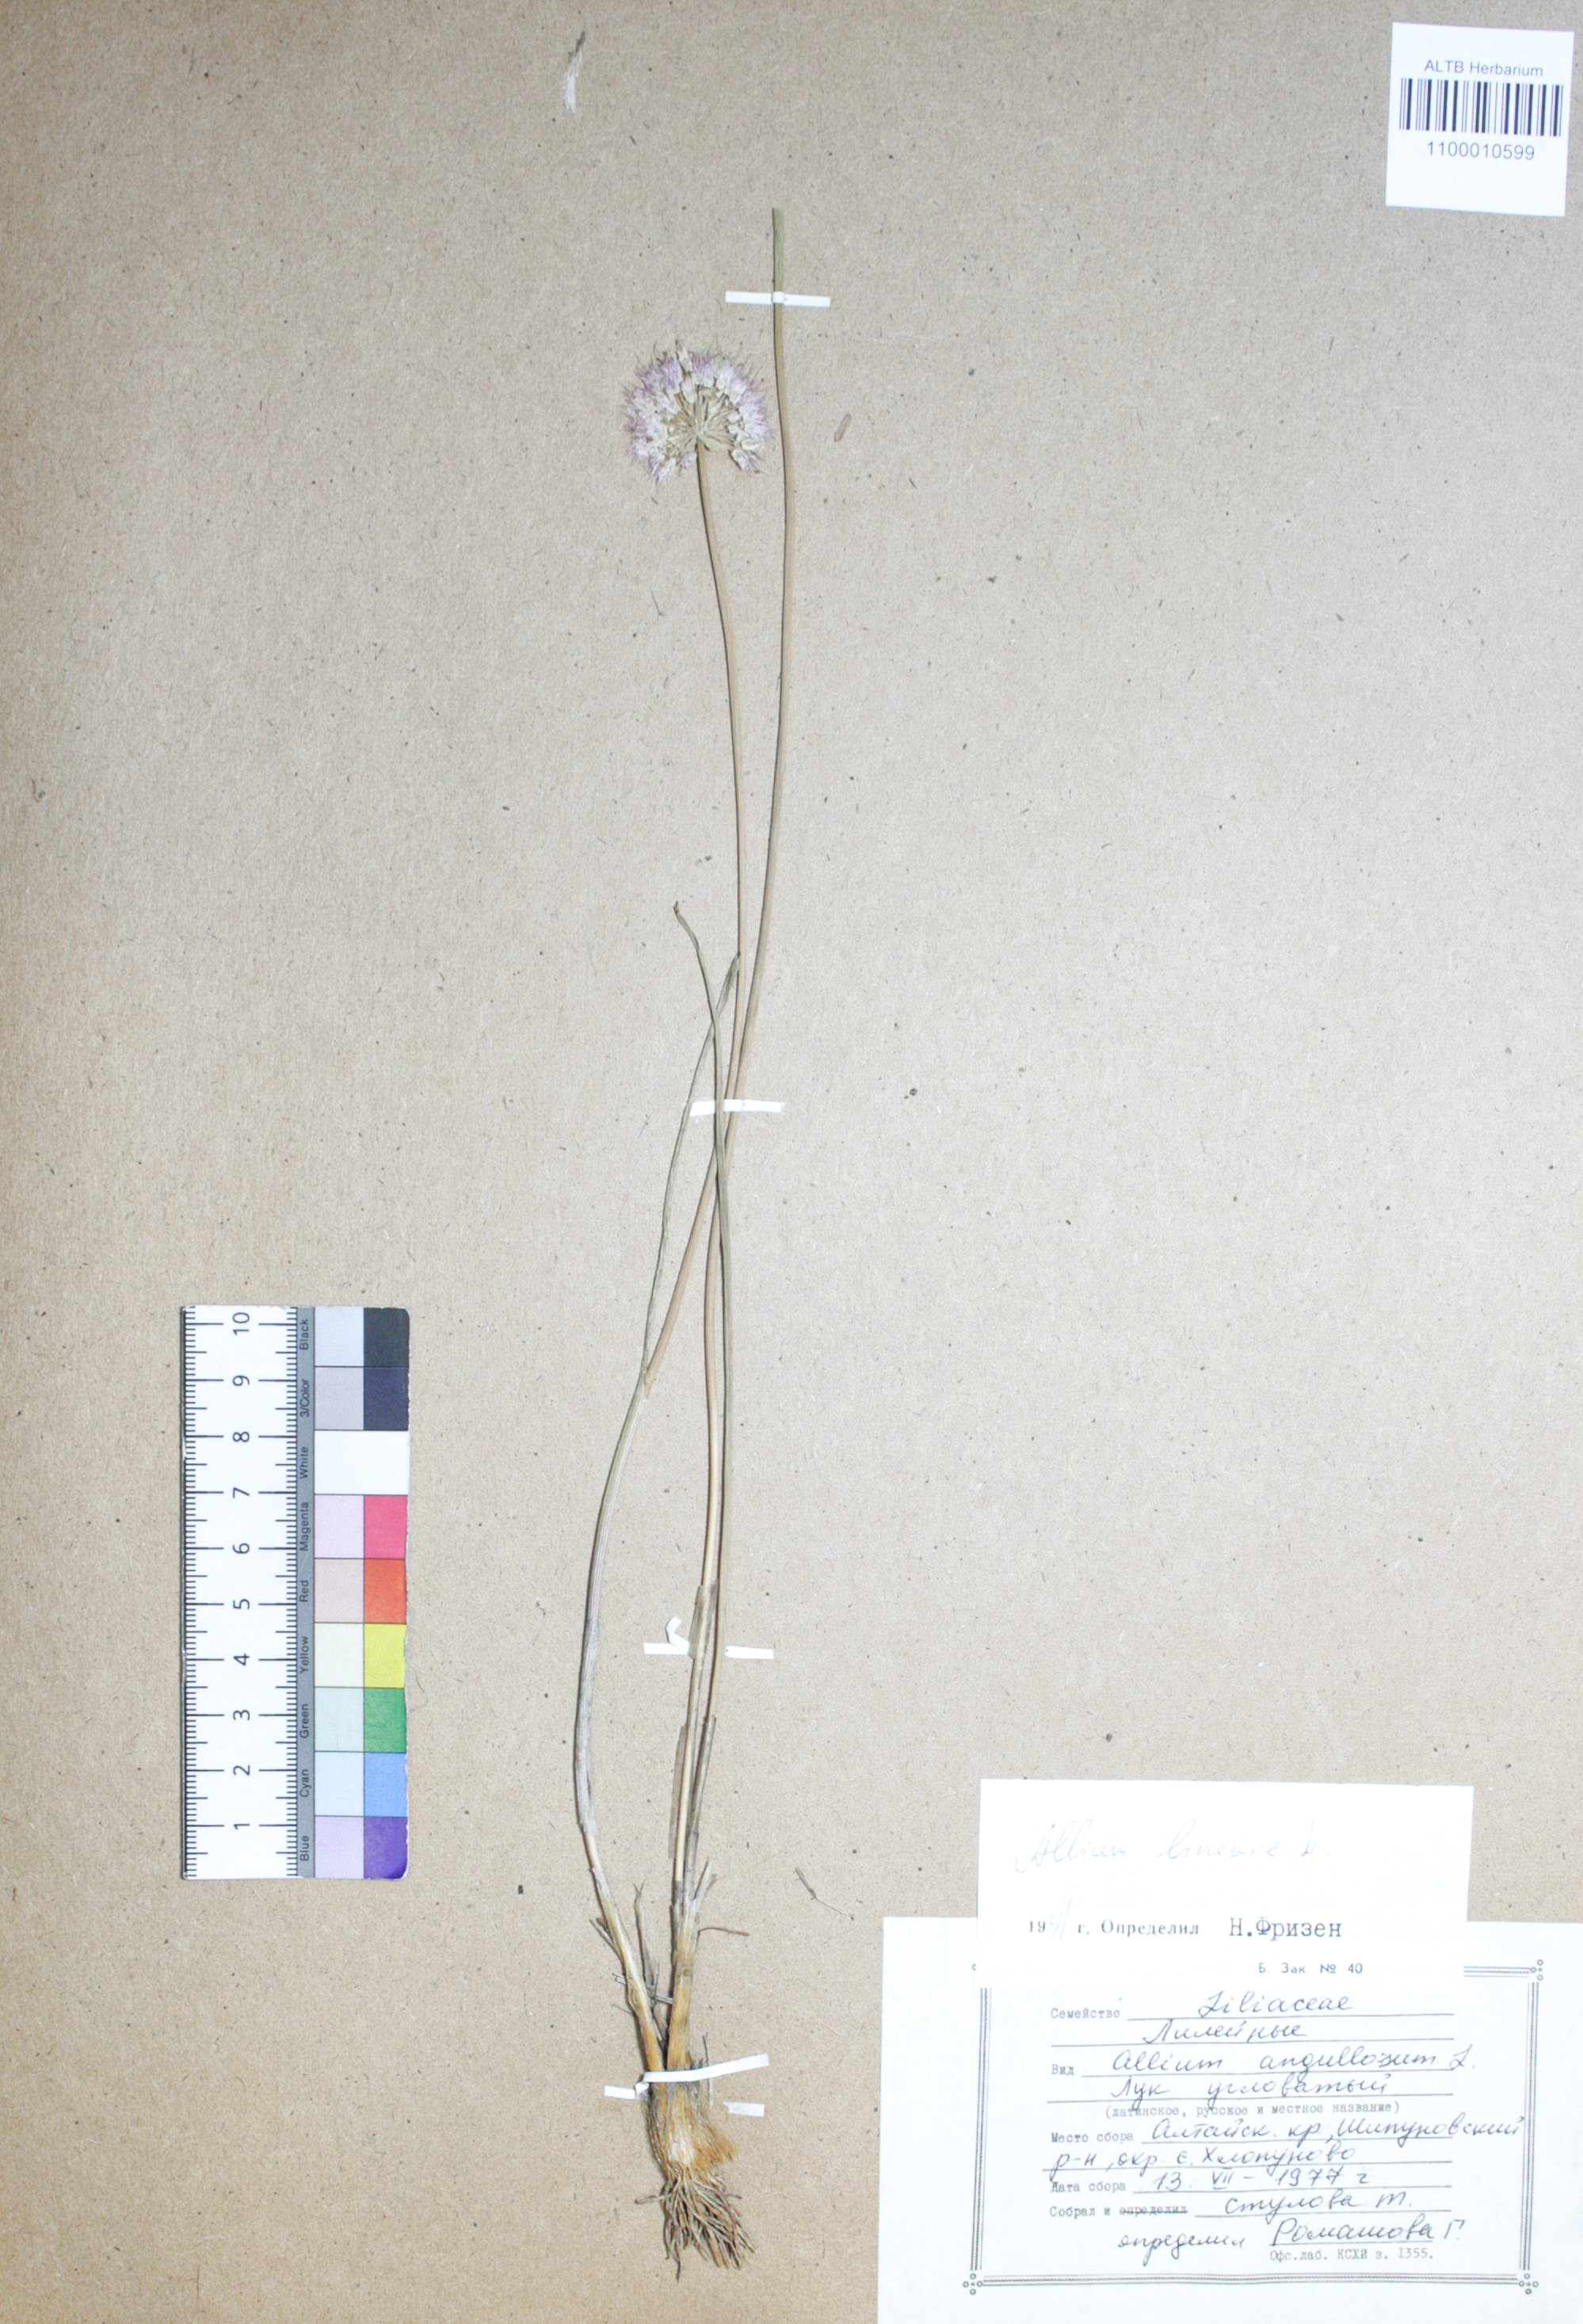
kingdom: Plantae
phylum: Tracheophyta
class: Liliopsida
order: Asparagales
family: Amaryllidaceae
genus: Allium
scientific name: Allium angulosum
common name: Mouse garlic
